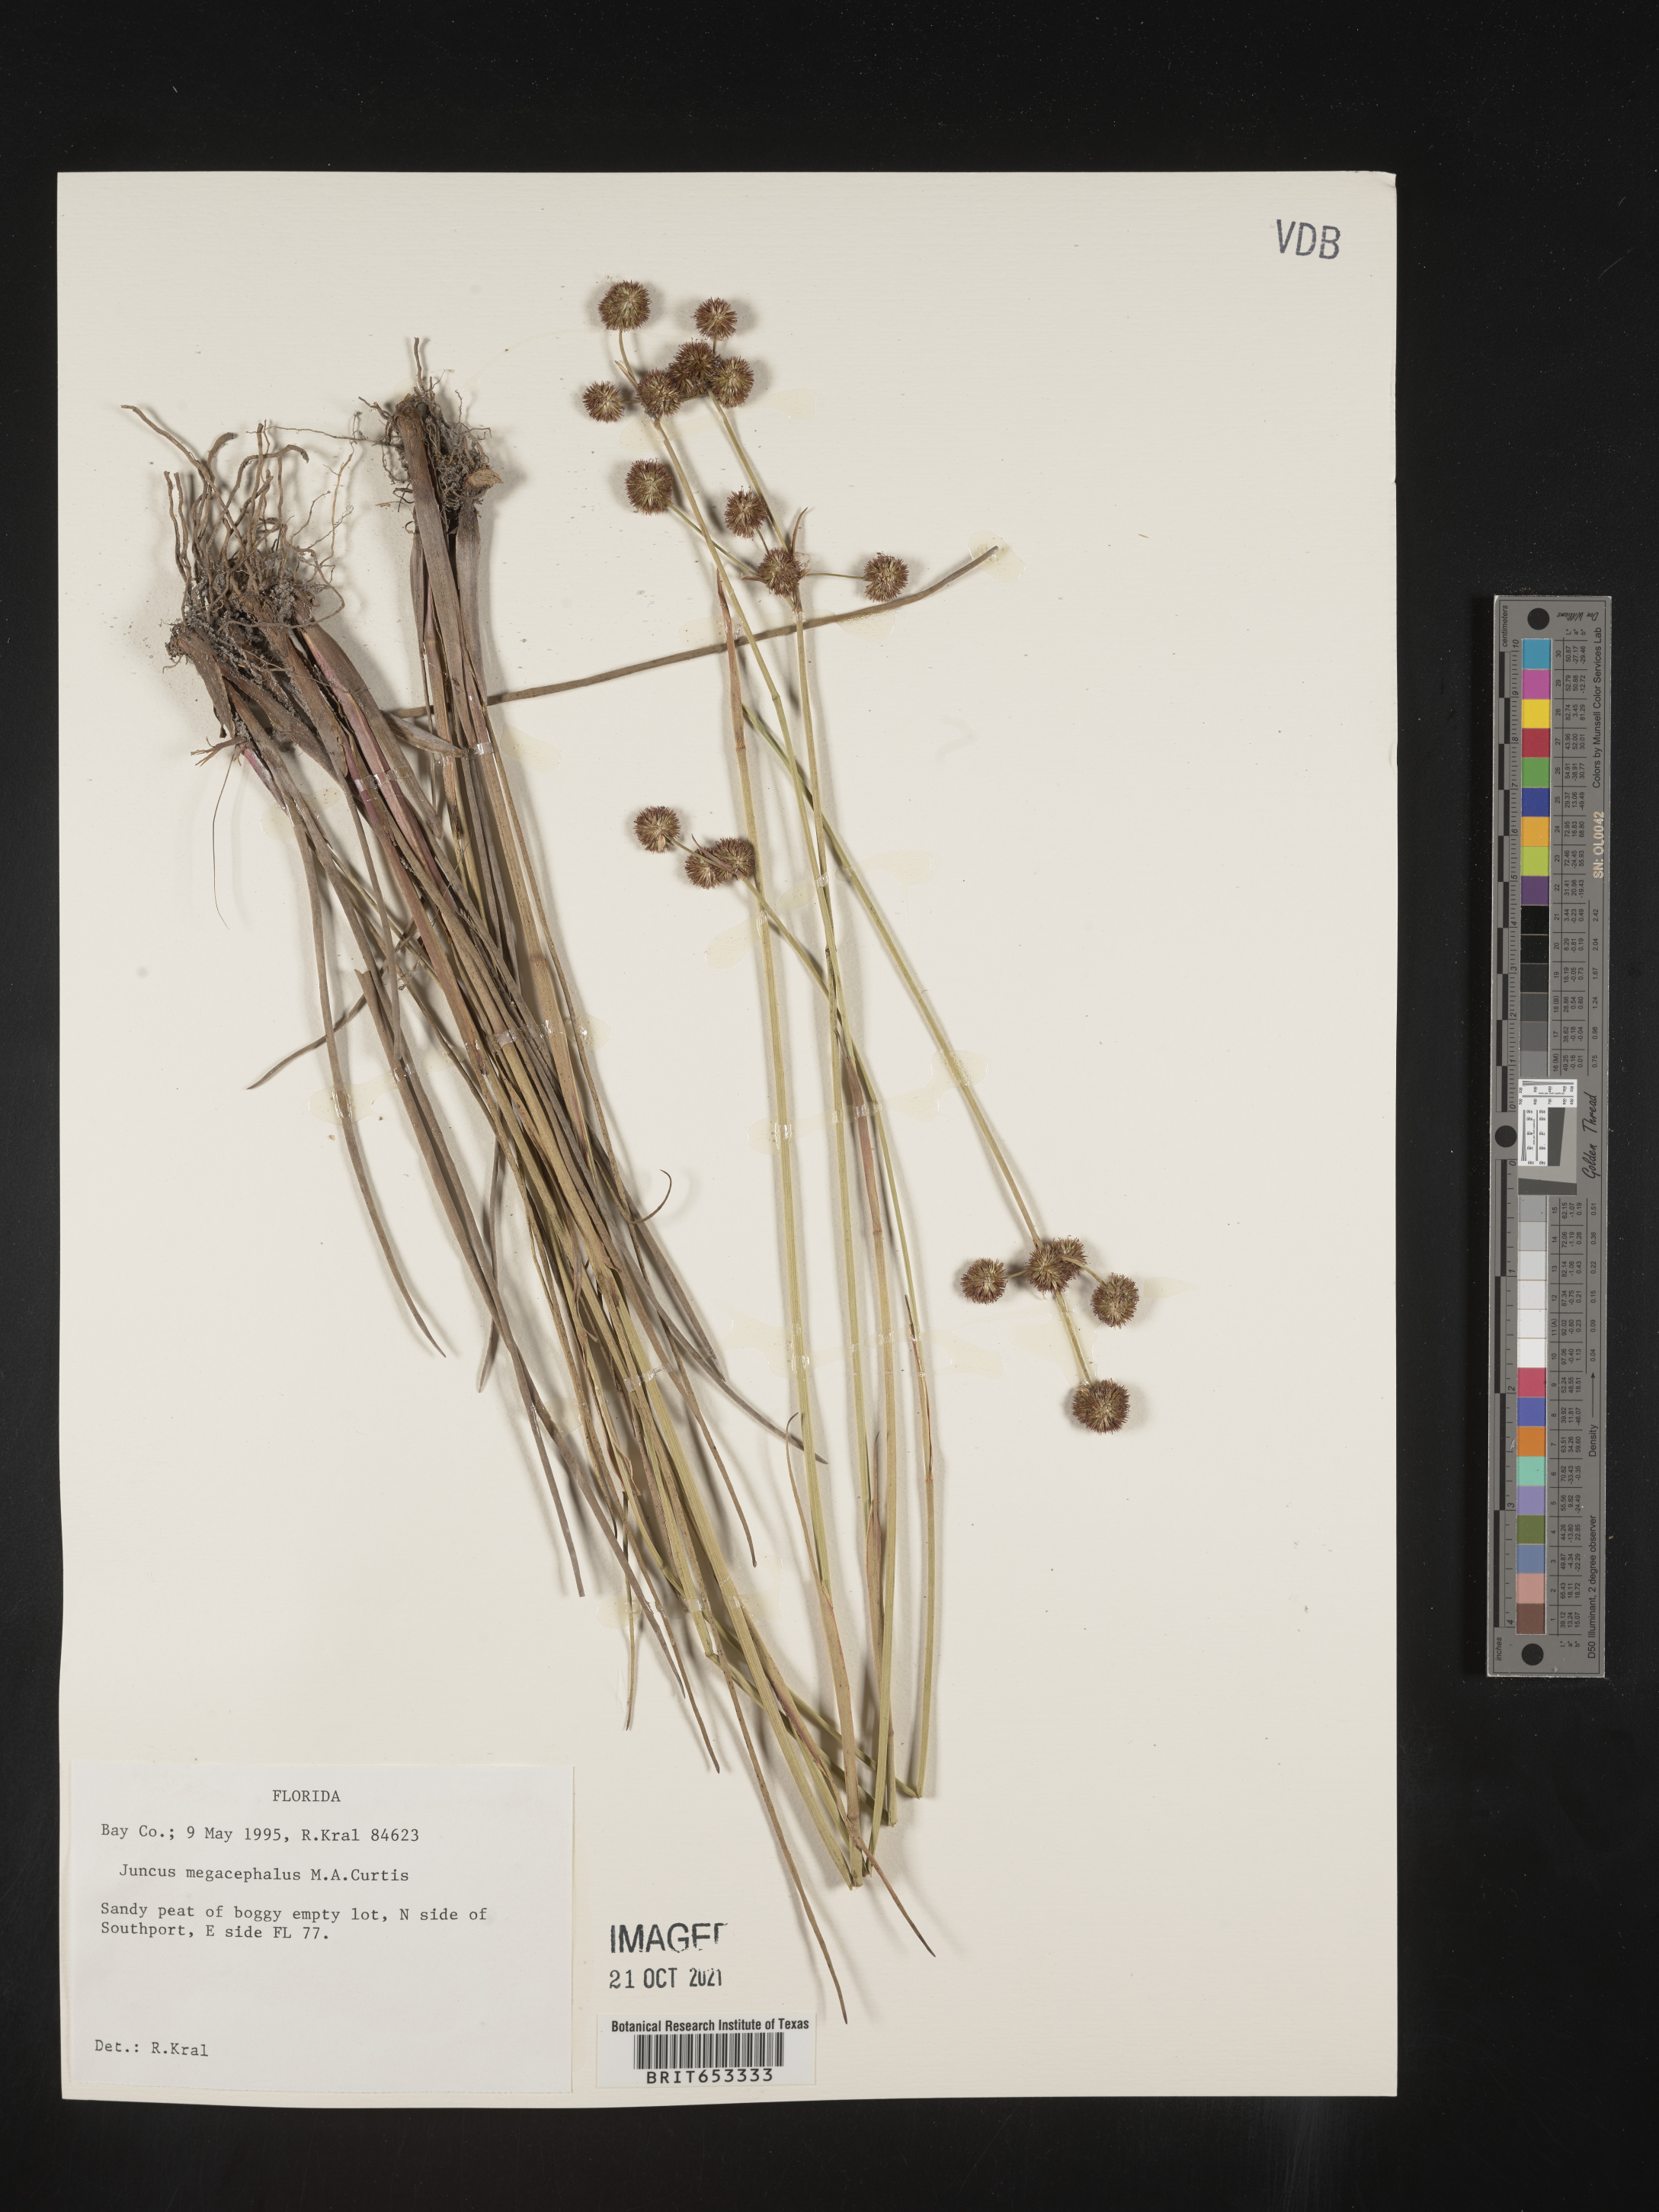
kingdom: Plantae
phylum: Tracheophyta
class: Liliopsida
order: Poales
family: Juncaceae
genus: Juncus
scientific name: Juncus megacephalus
